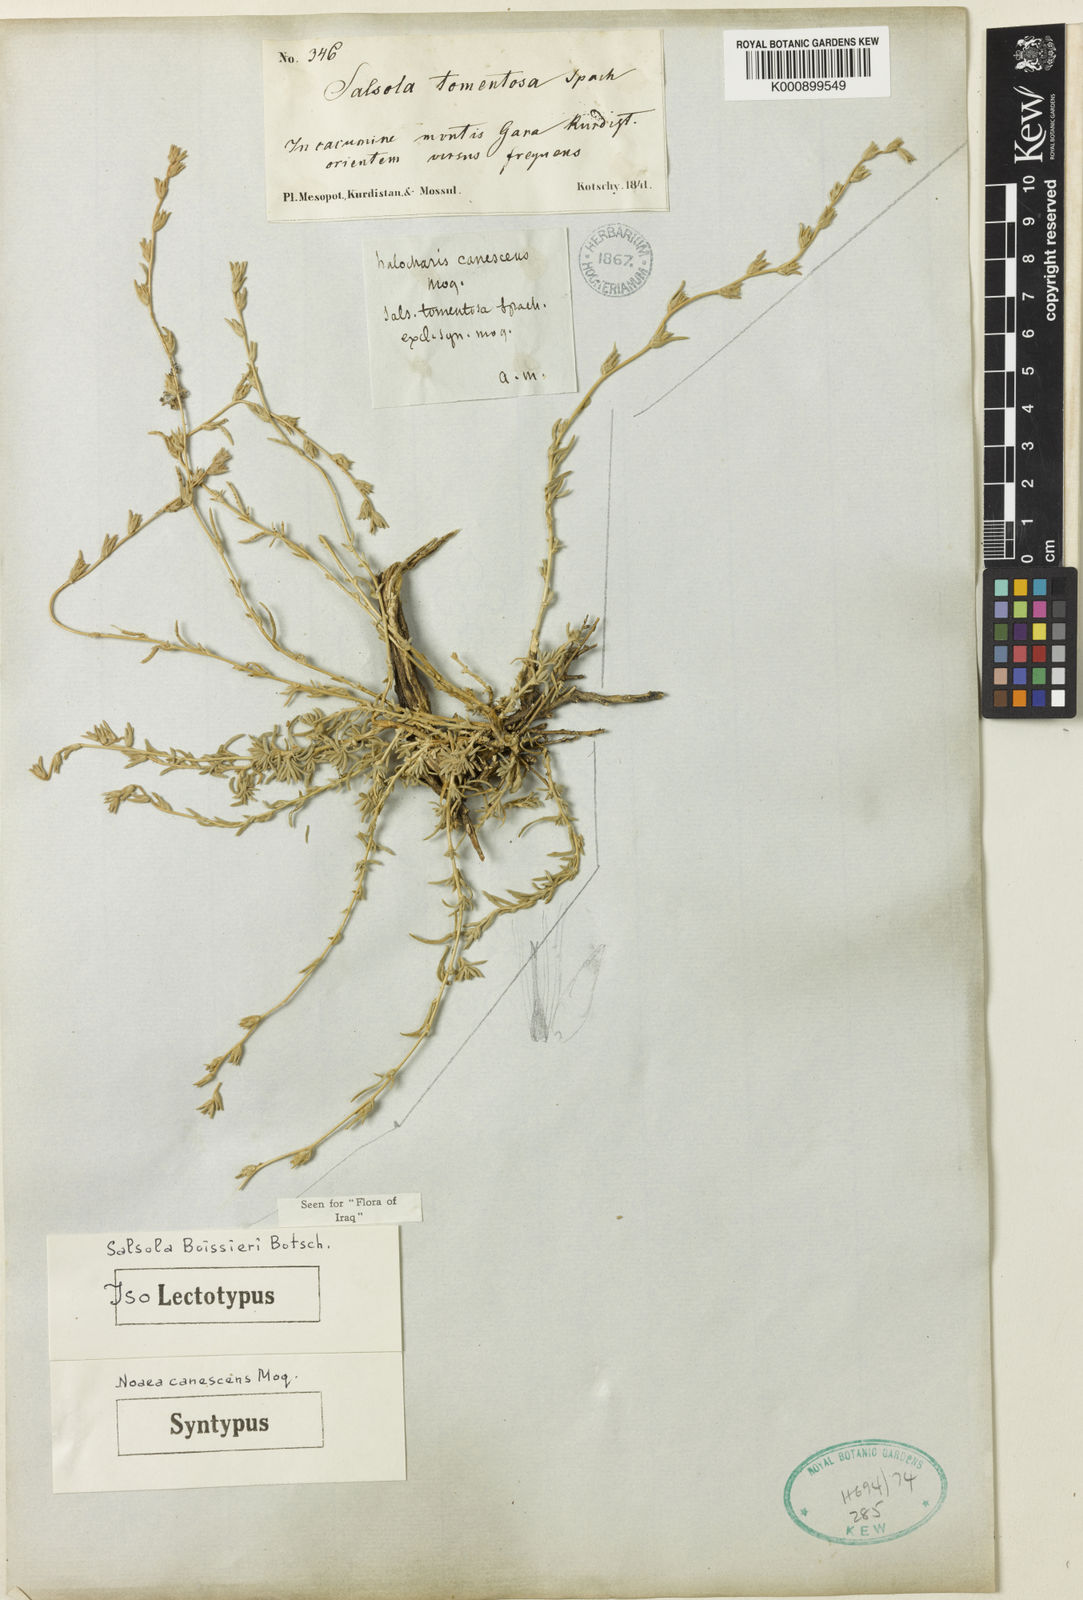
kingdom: Plantae
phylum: Tracheophyta
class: Magnoliopsida
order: Caryophyllales
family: Amaranthaceae
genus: Salsola
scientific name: Salsola
